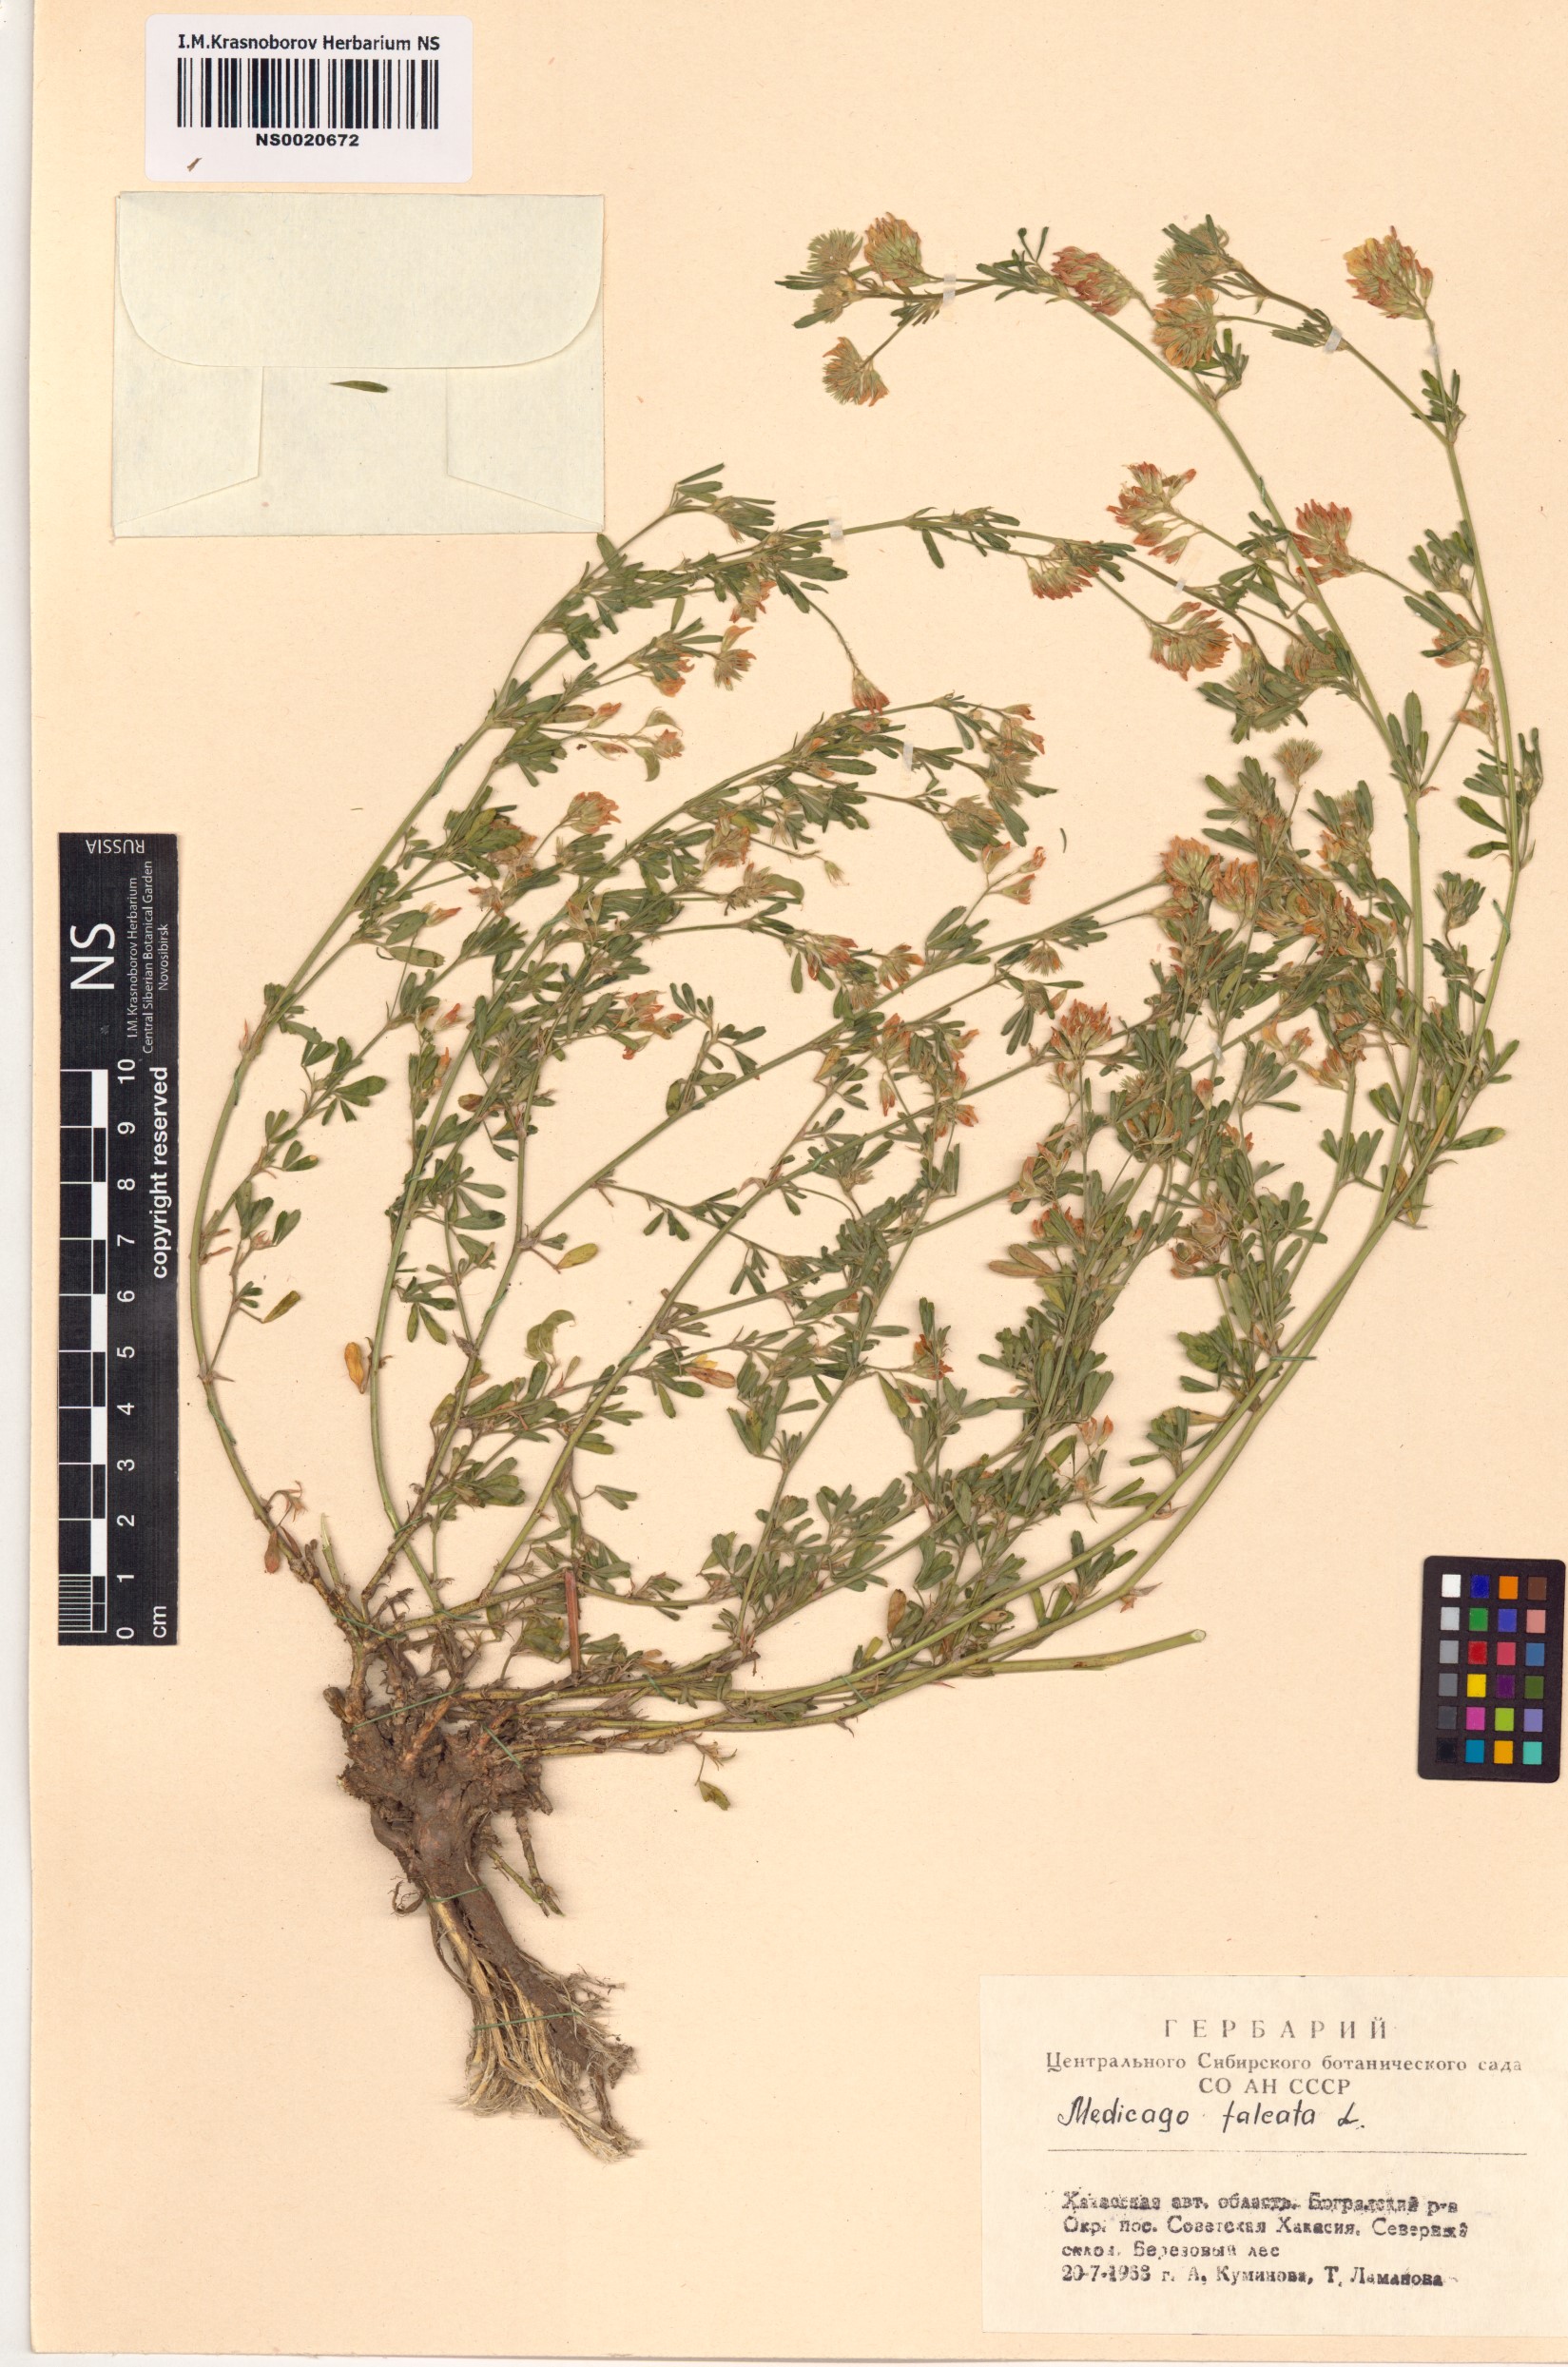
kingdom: Plantae
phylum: Tracheophyta
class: Magnoliopsida
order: Fabales
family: Fabaceae
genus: Medicago
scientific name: Medicago falcata
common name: Sickle medick
